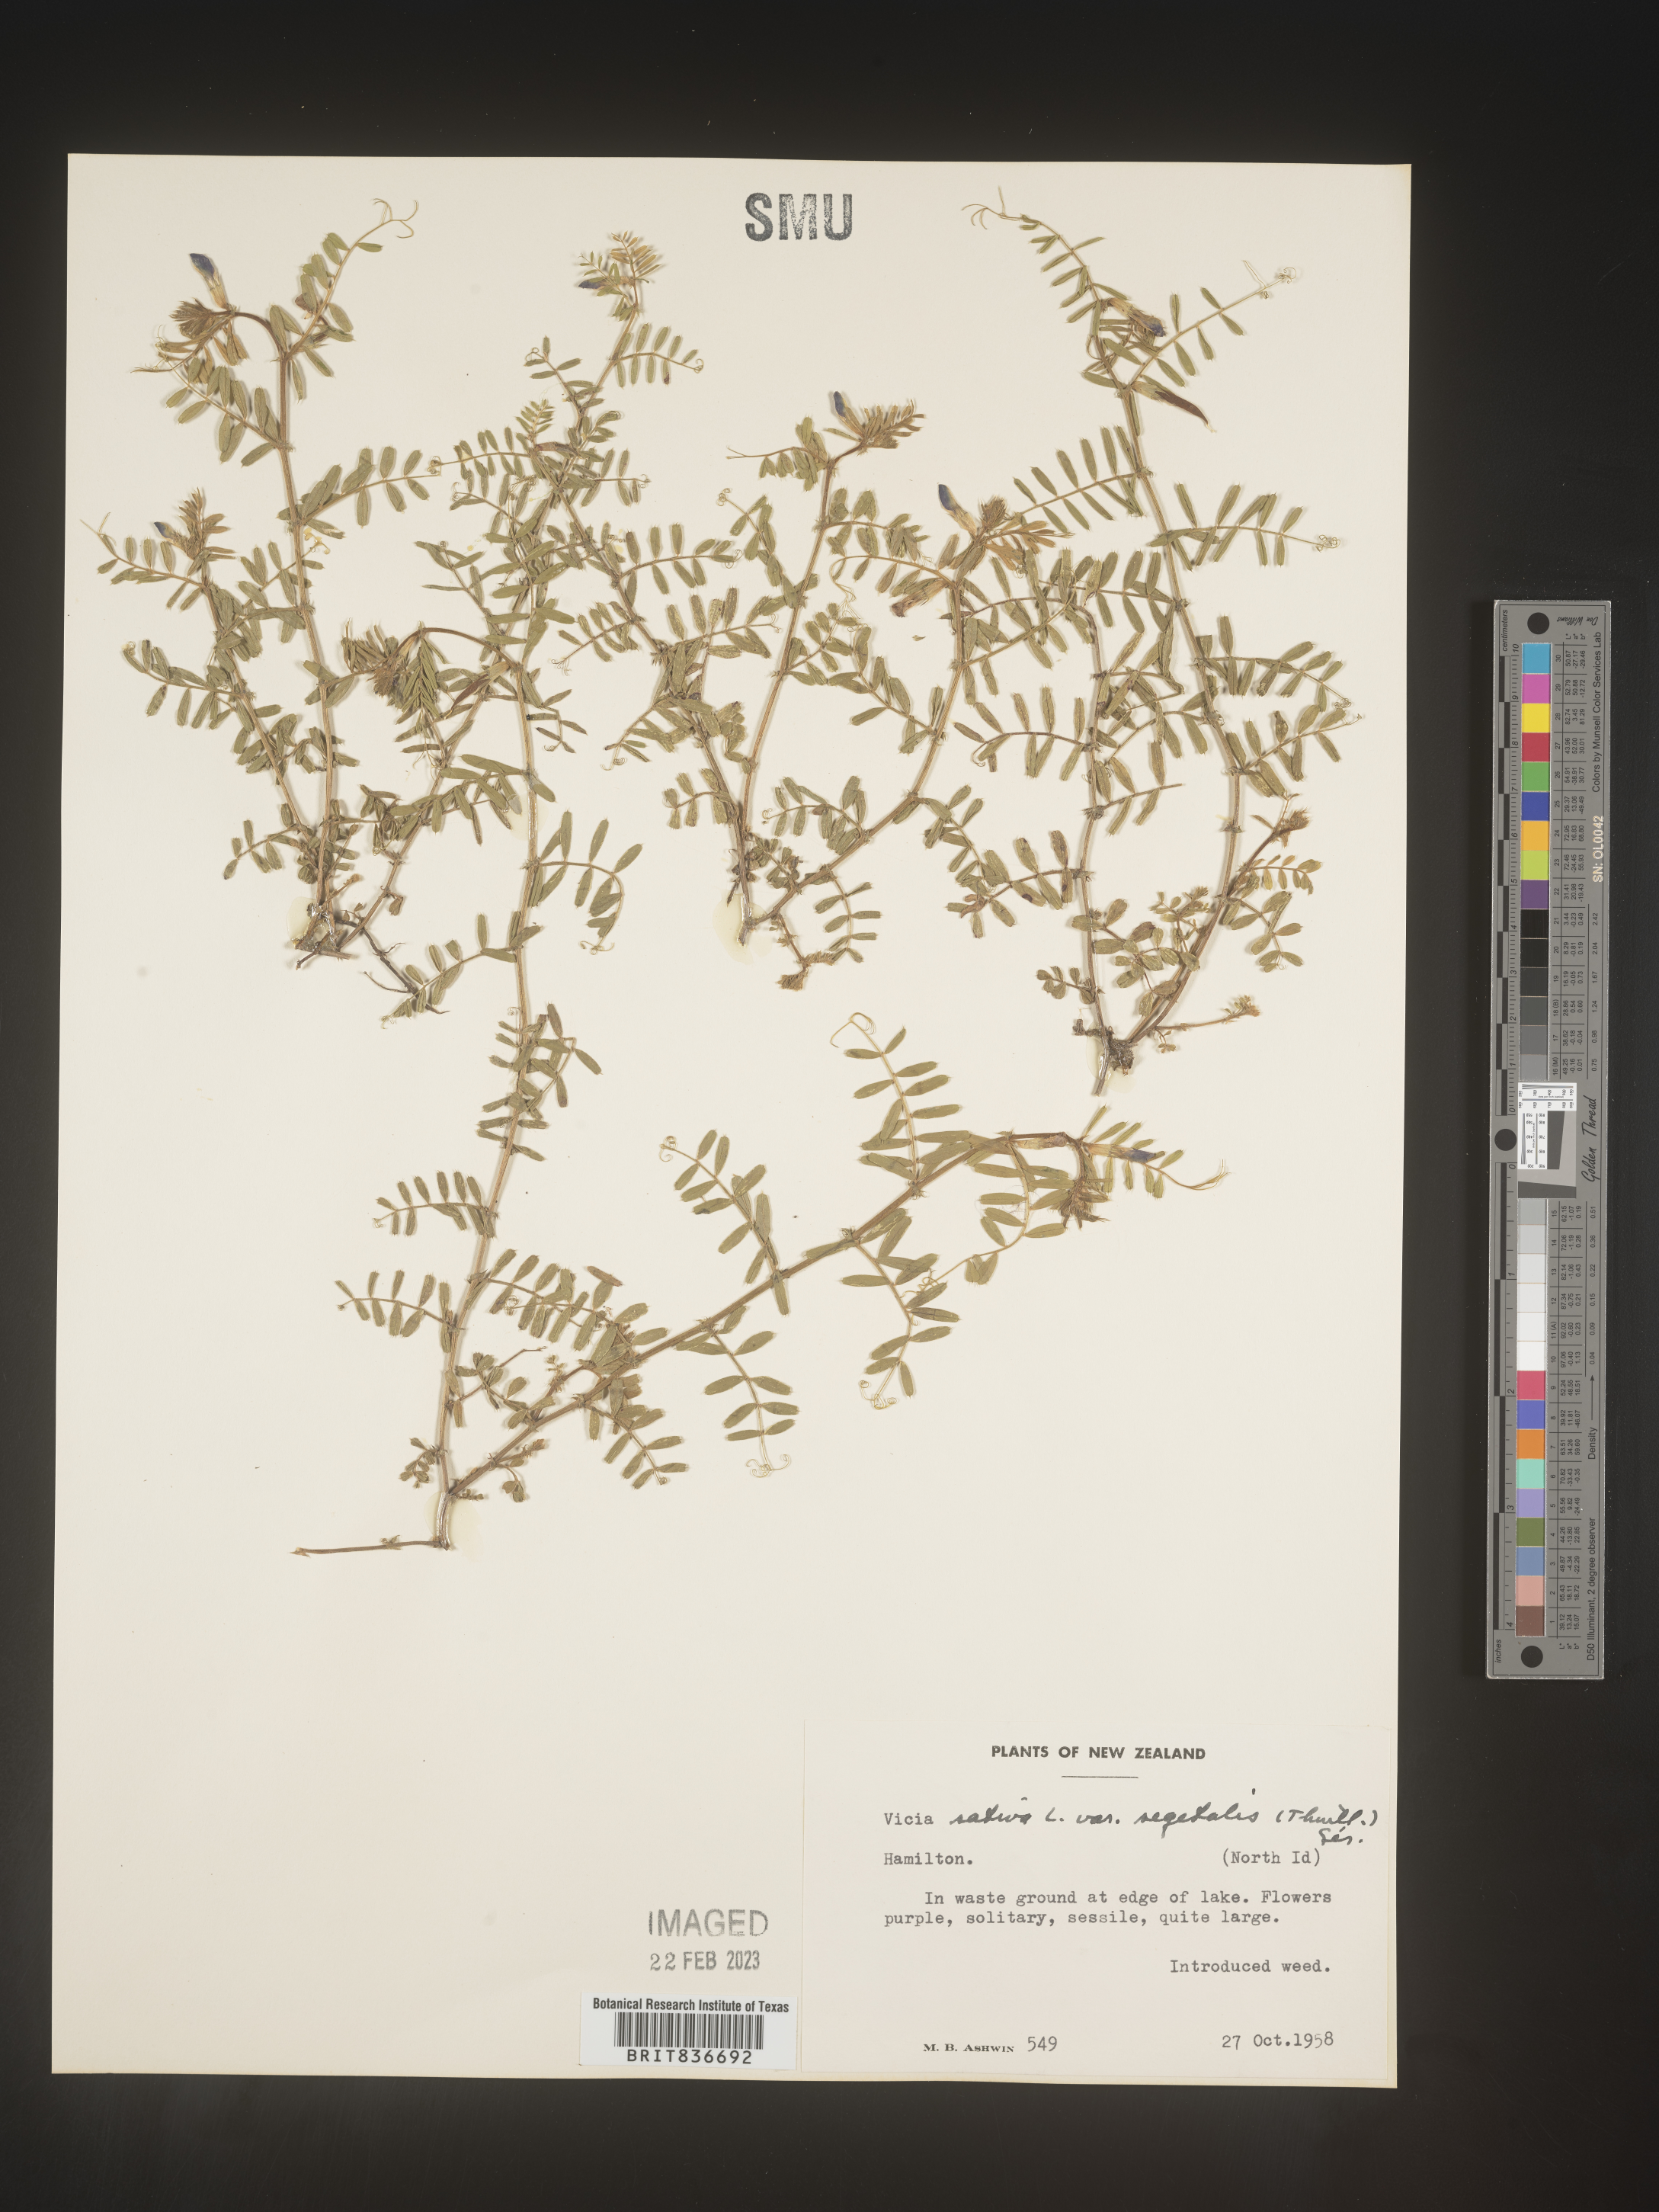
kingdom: Plantae
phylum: Tracheophyta
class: Magnoliopsida
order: Fabales
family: Fabaceae
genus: Vicia
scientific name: Vicia
